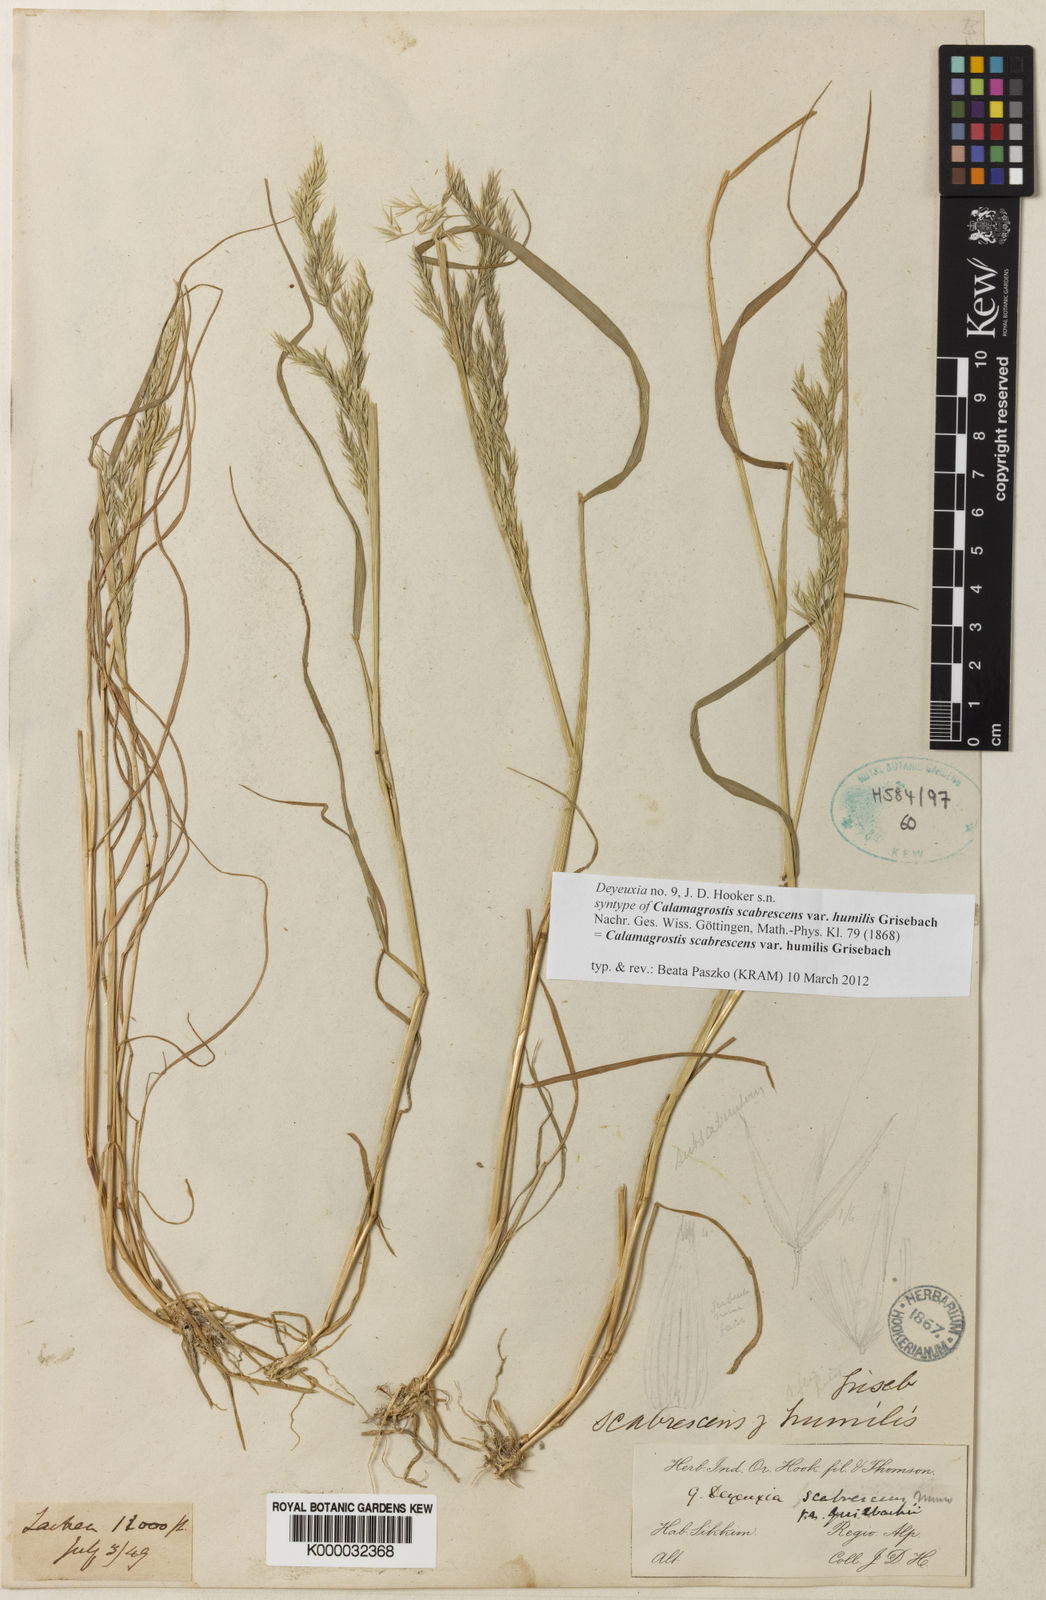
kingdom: Plantae
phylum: Tracheophyta
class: Liliopsida
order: Poales
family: Poaceae
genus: Calamagrostis
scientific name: Calamagrostis filiformis
